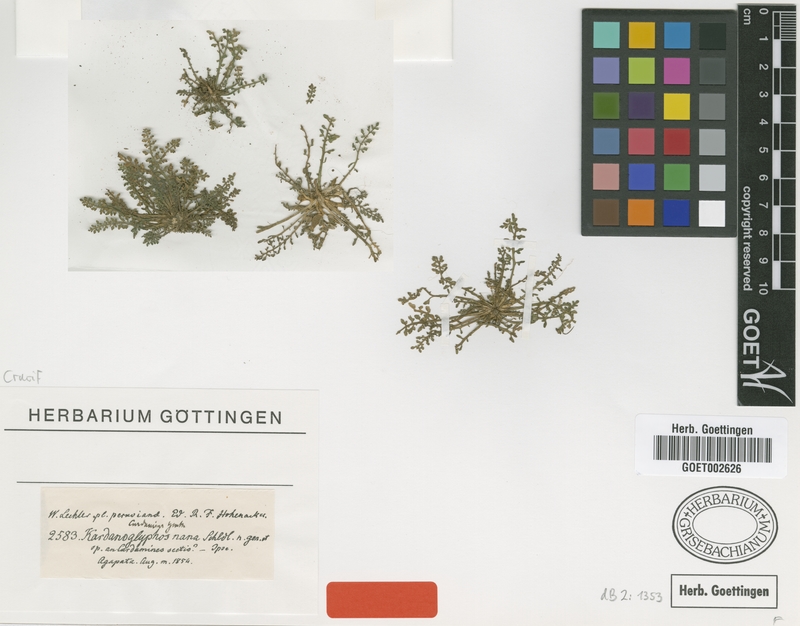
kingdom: Plantae
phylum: Tracheophyta
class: Magnoliopsida
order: Brassicales
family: Brassicaceae
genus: Rorippa
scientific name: Rorippa nana
